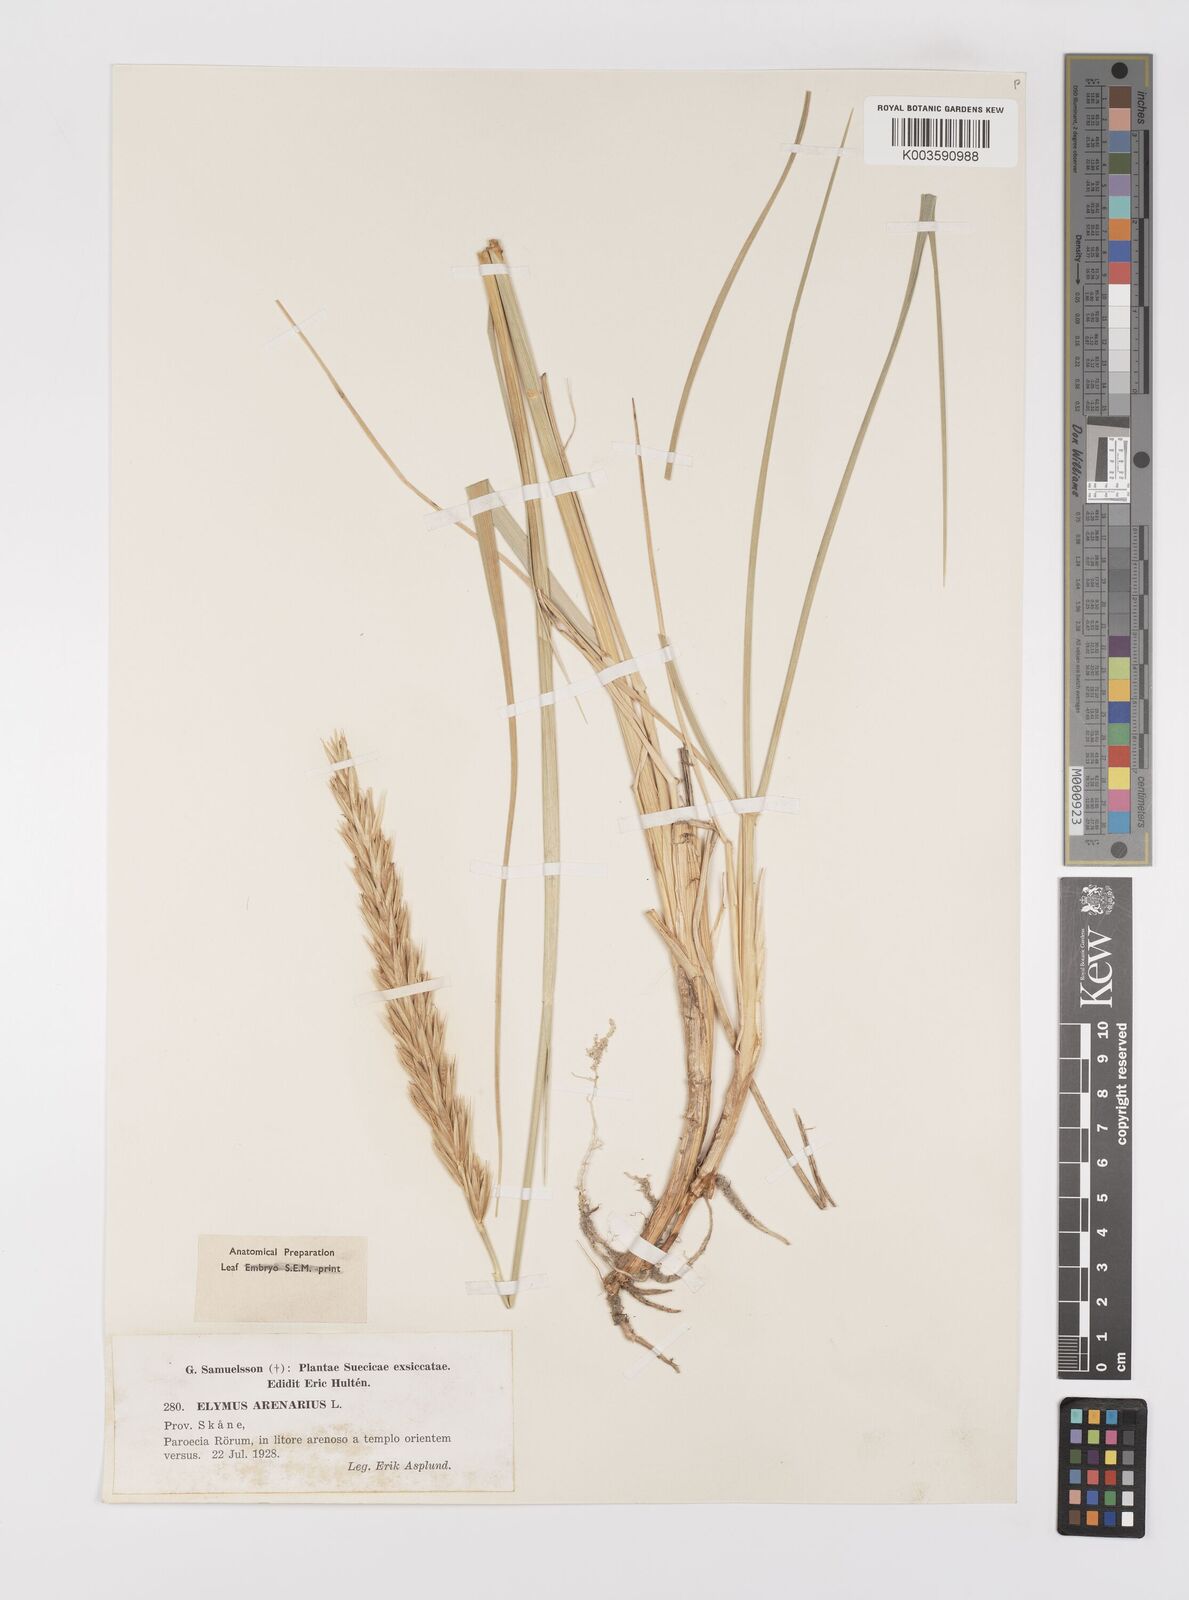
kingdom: Plantae
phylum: Tracheophyta
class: Liliopsida
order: Poales
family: Poaceae
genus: Leymus
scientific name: Leymus arenarius
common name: Lyme-grass
